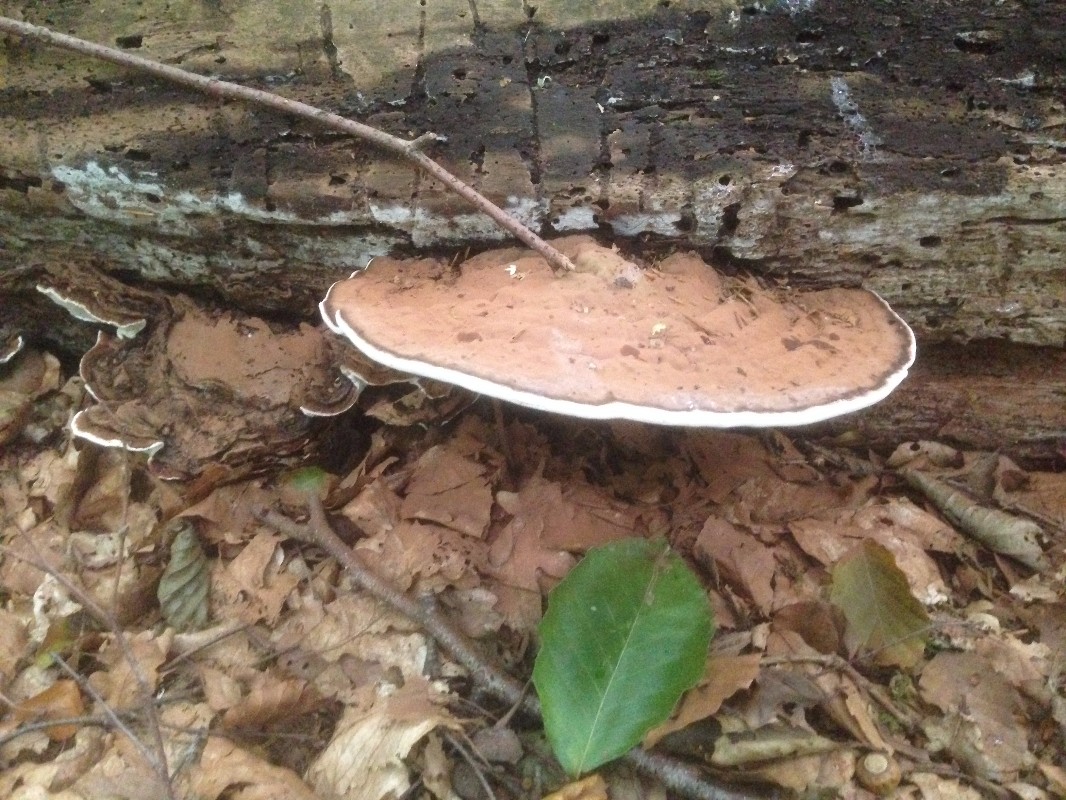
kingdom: Fungi
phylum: Basidiomycota
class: Agaricomycetes
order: Polyporales
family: Polyporaceae
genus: Ganoderma
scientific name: Ganoderma applanatum
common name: flad lakporesvamp
